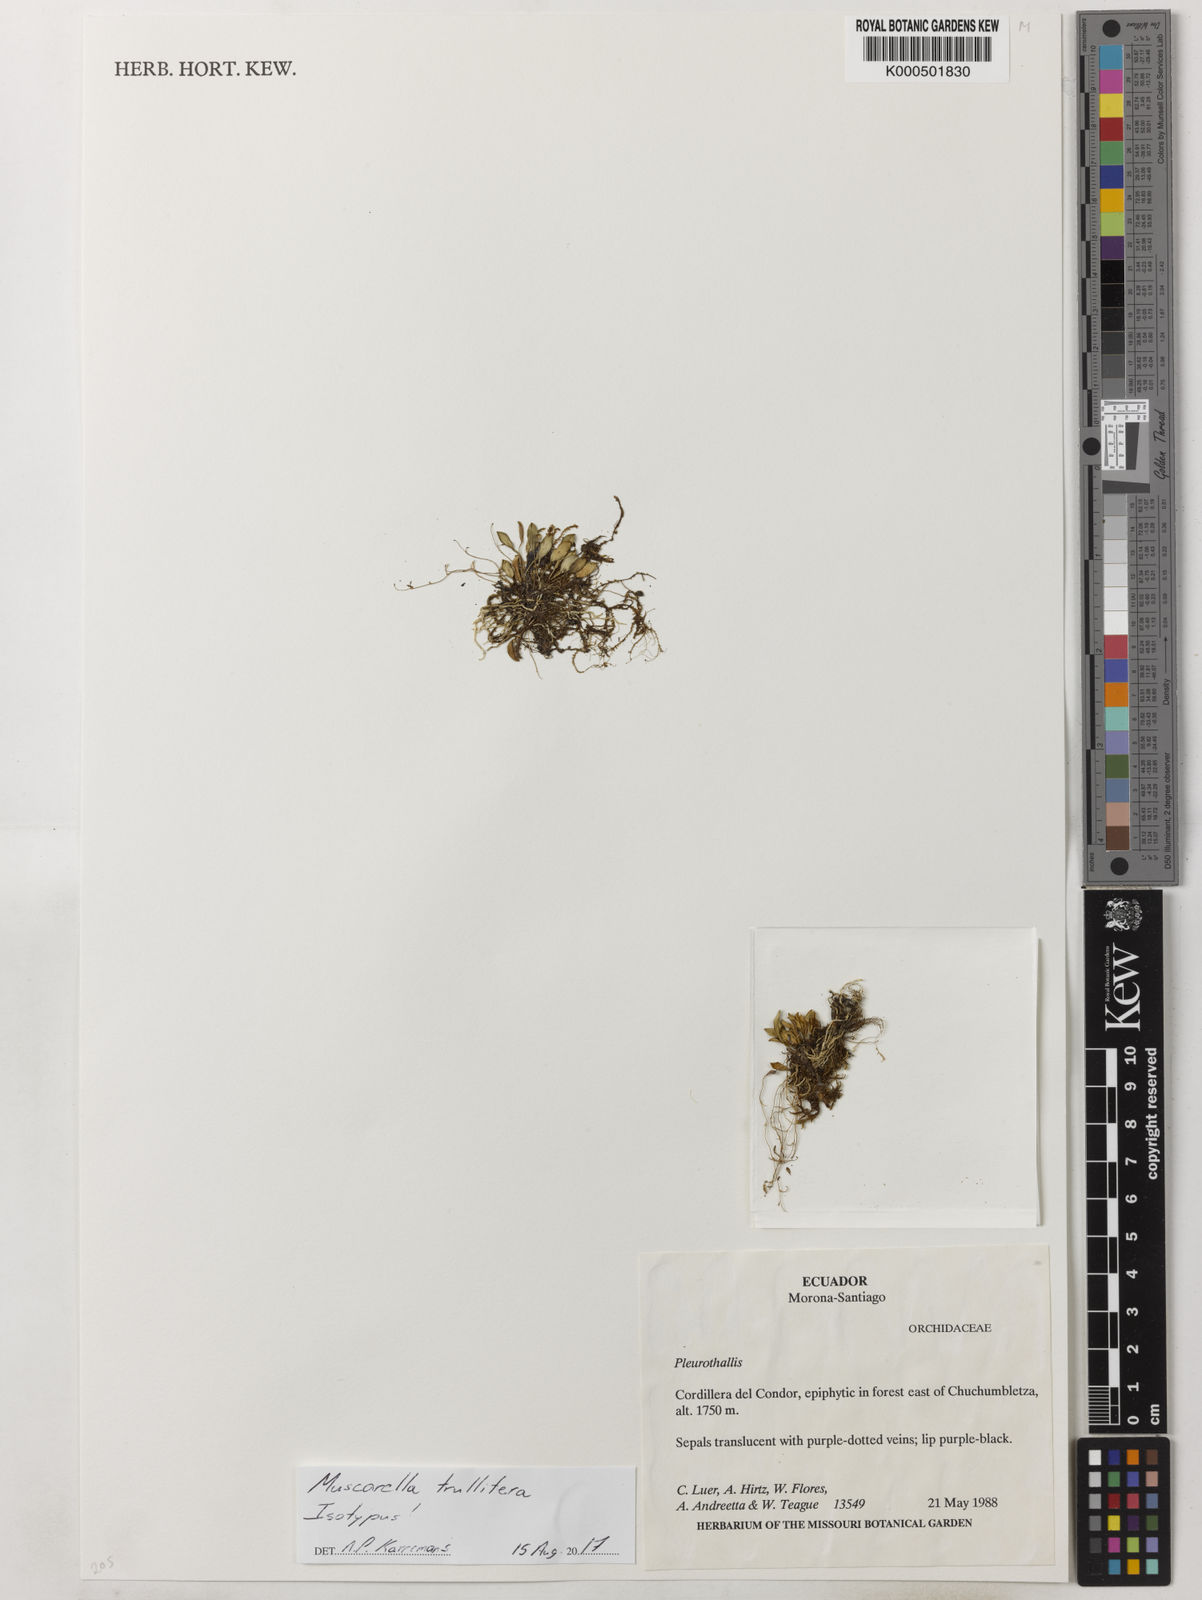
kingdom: Plantae
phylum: Tracheophyta
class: Liliopsida
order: Asparagales
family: Orchidaceae
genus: Muscarella
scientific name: Muscarella trullifera
